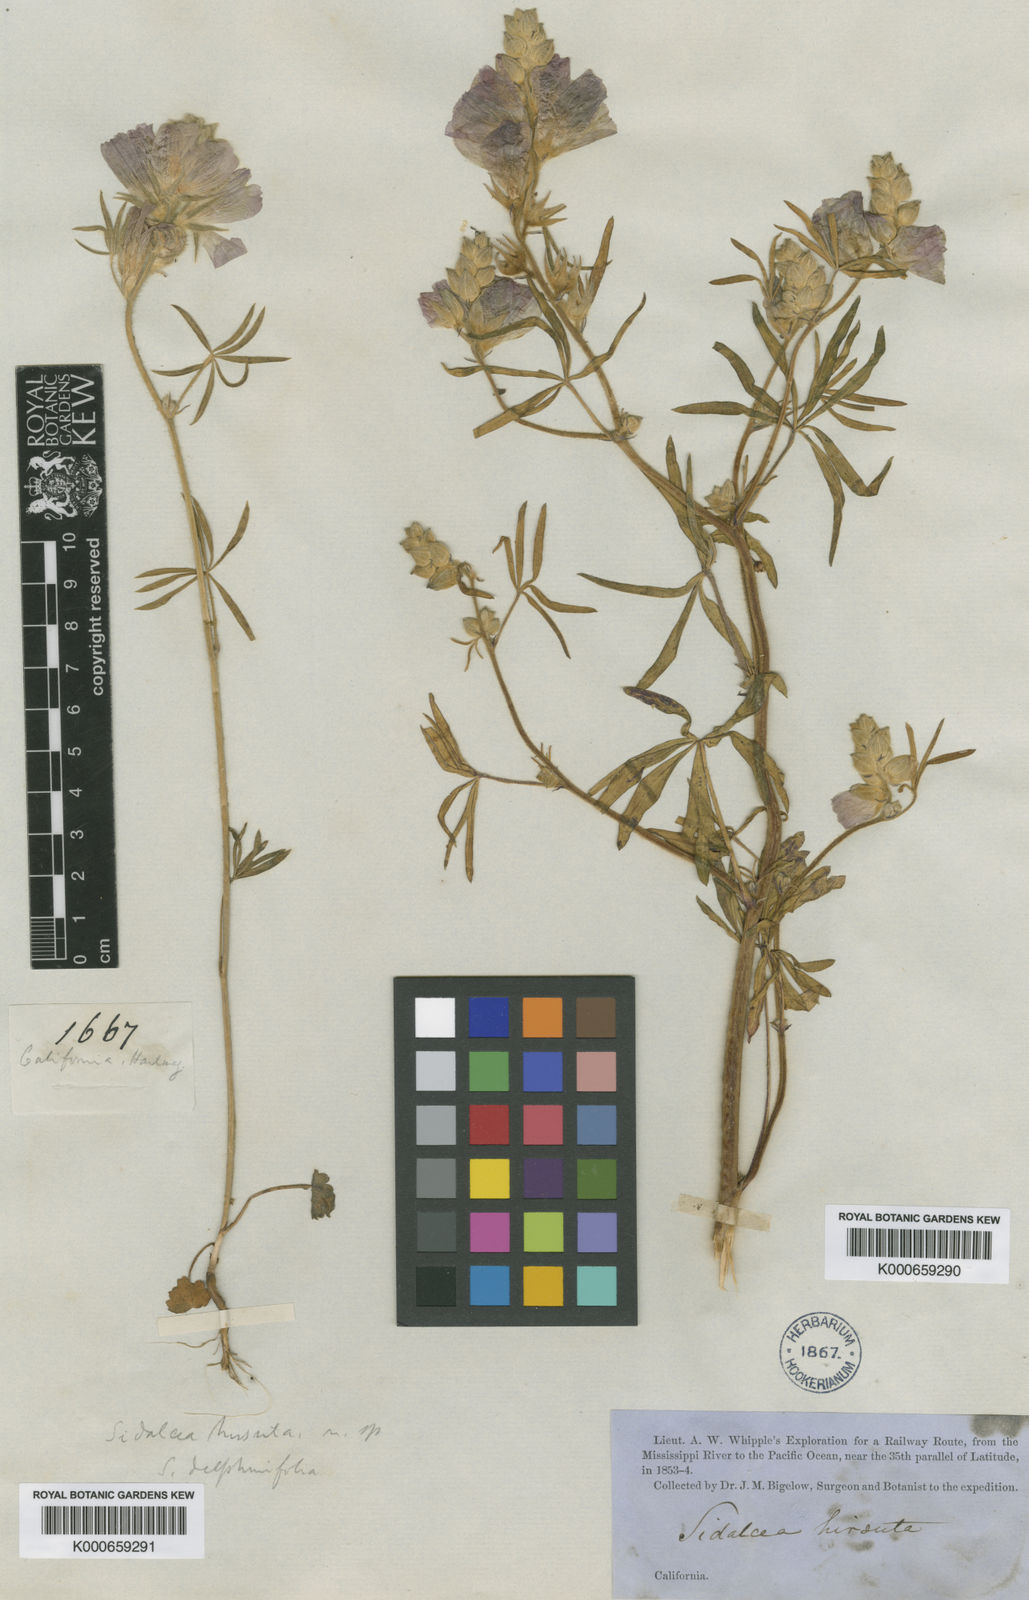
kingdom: Plantae
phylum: Tracheophyta
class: Magnoliopsida
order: Malvales
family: Malvaceae
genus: Sidalcea
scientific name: Sidalcea hirsuta
